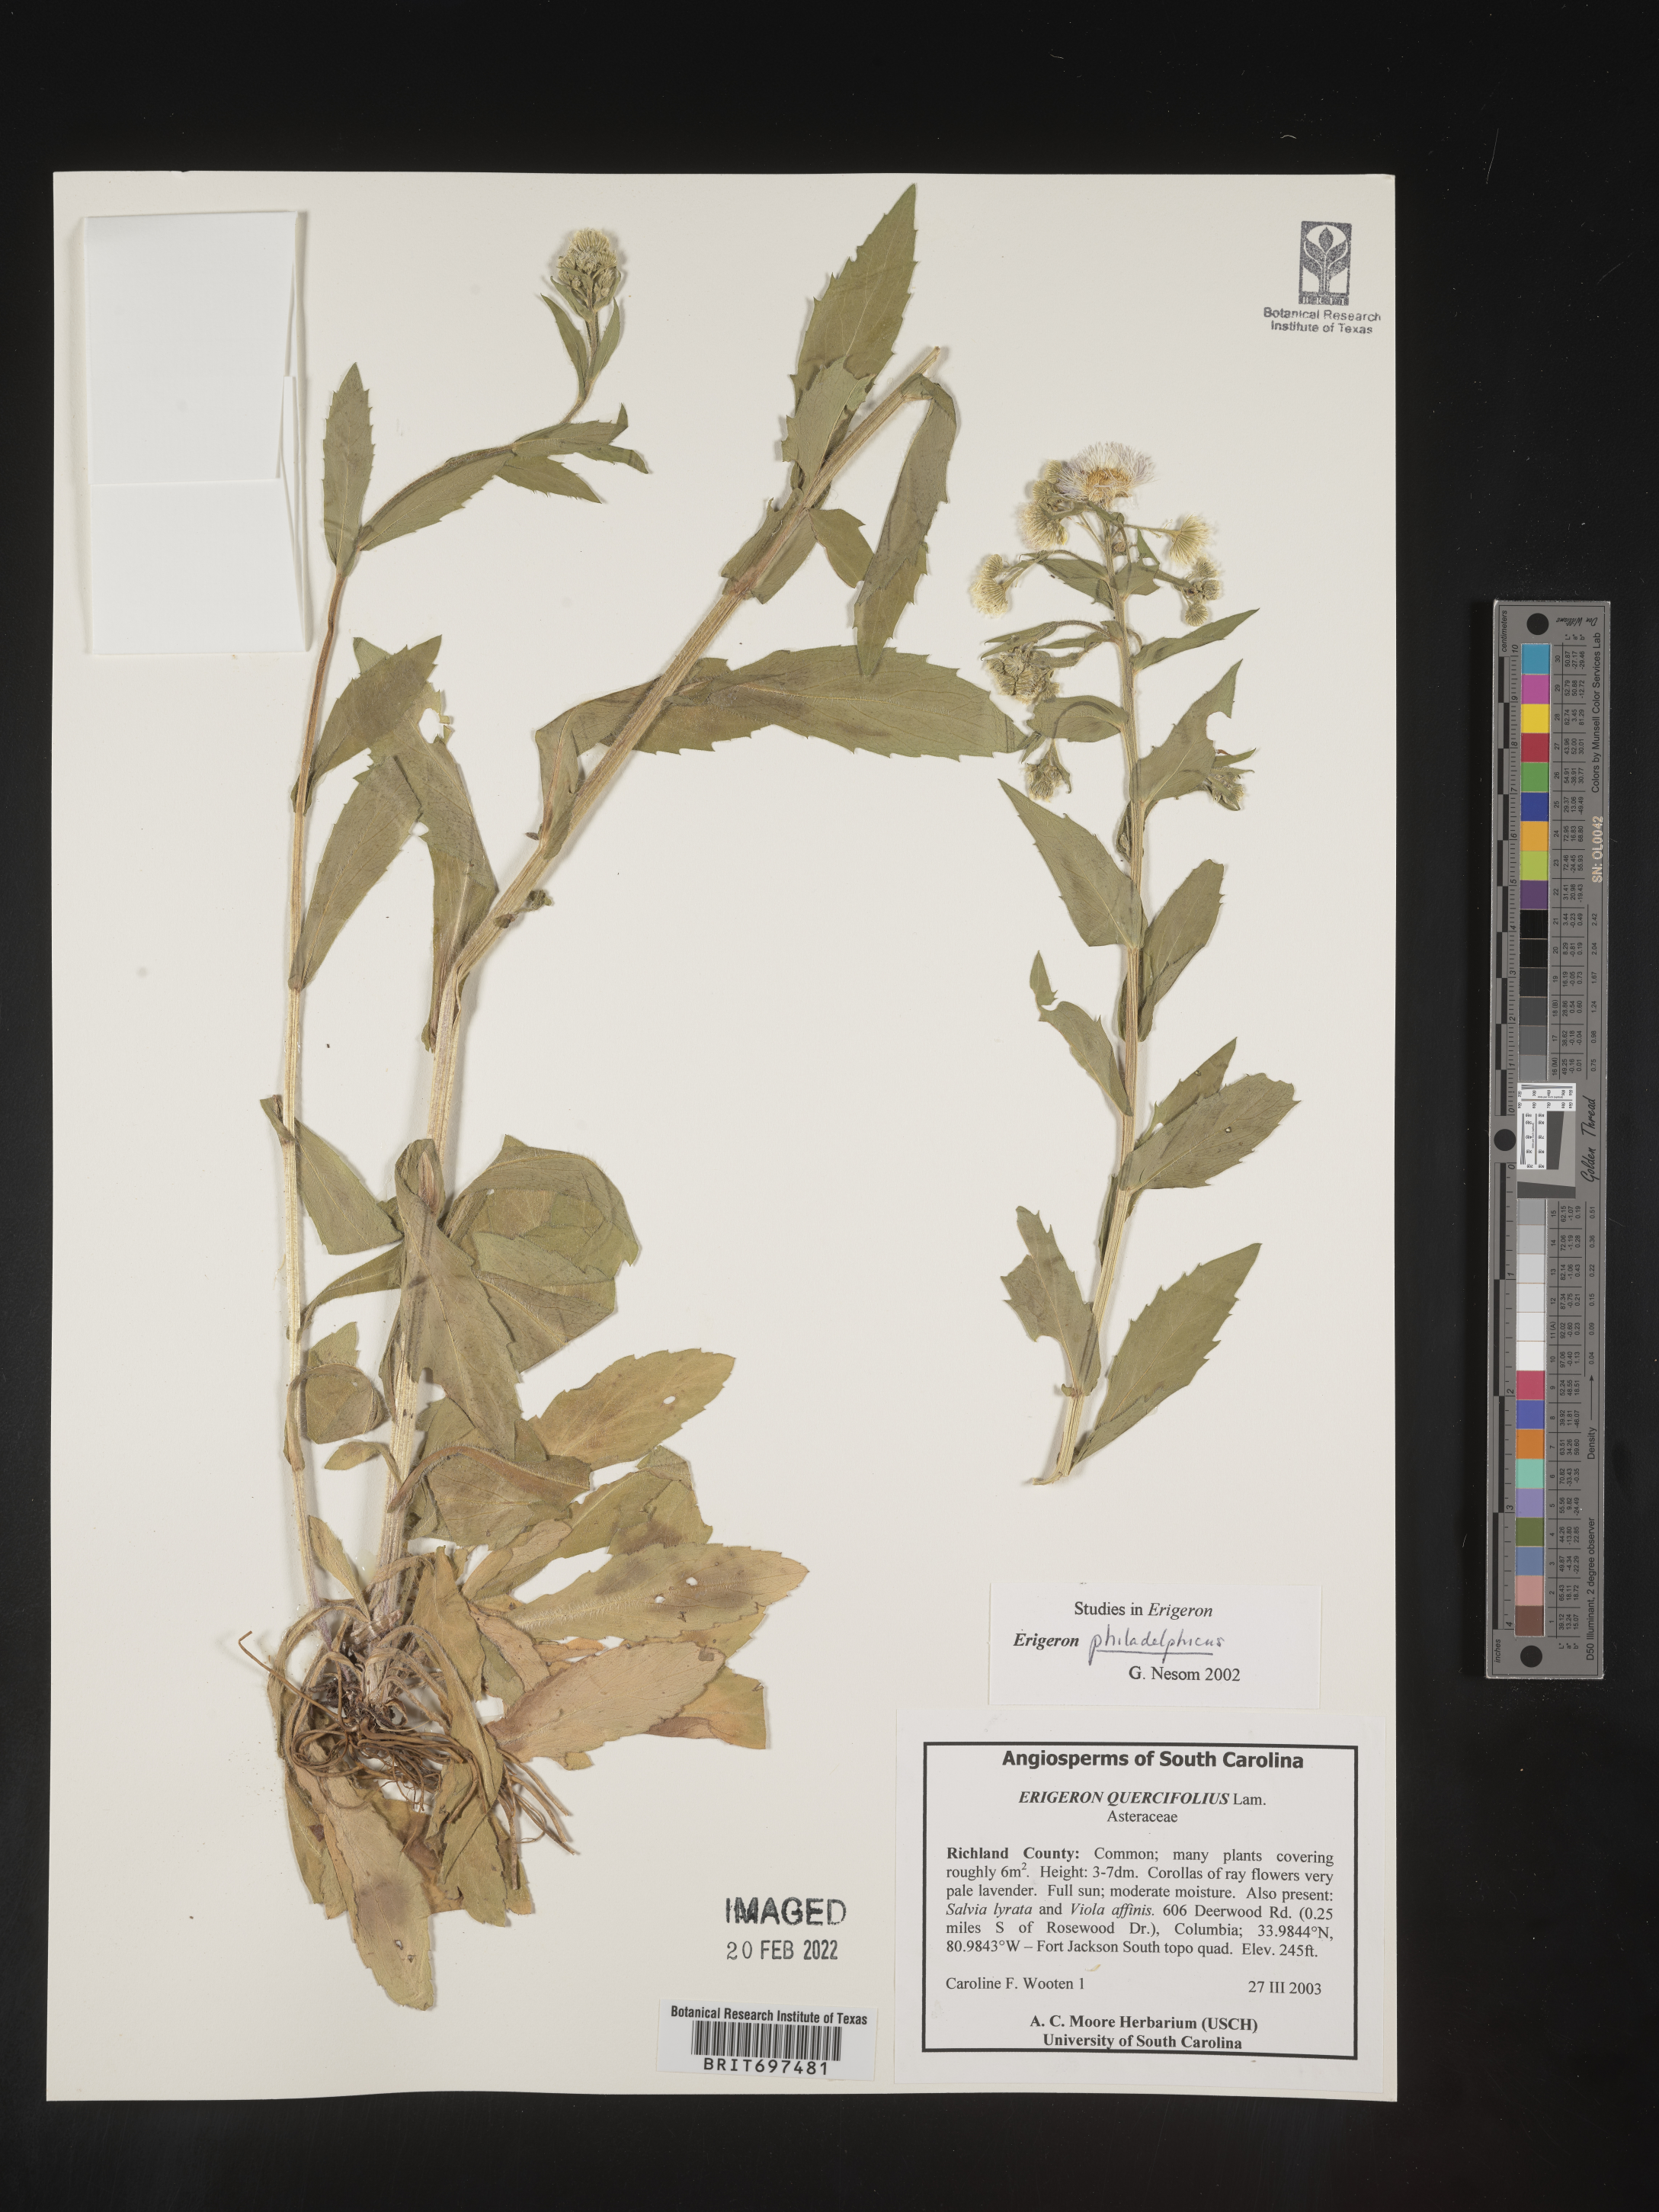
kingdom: Plantae
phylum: Tracheophyta
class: Magnoliopsida
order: Asterales
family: Asteraceae
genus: Erigeron
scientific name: Erigeron philadelphicus
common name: Robin's-plantain
